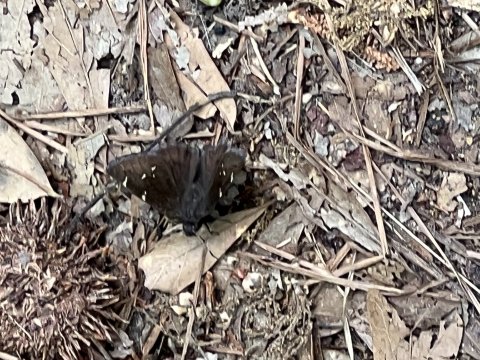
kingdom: Animalia
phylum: Arthropoda
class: Insecta
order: Lepidoptera
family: Hesperiidae
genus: Autochton
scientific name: Autochton
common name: Northern Cloudywing
